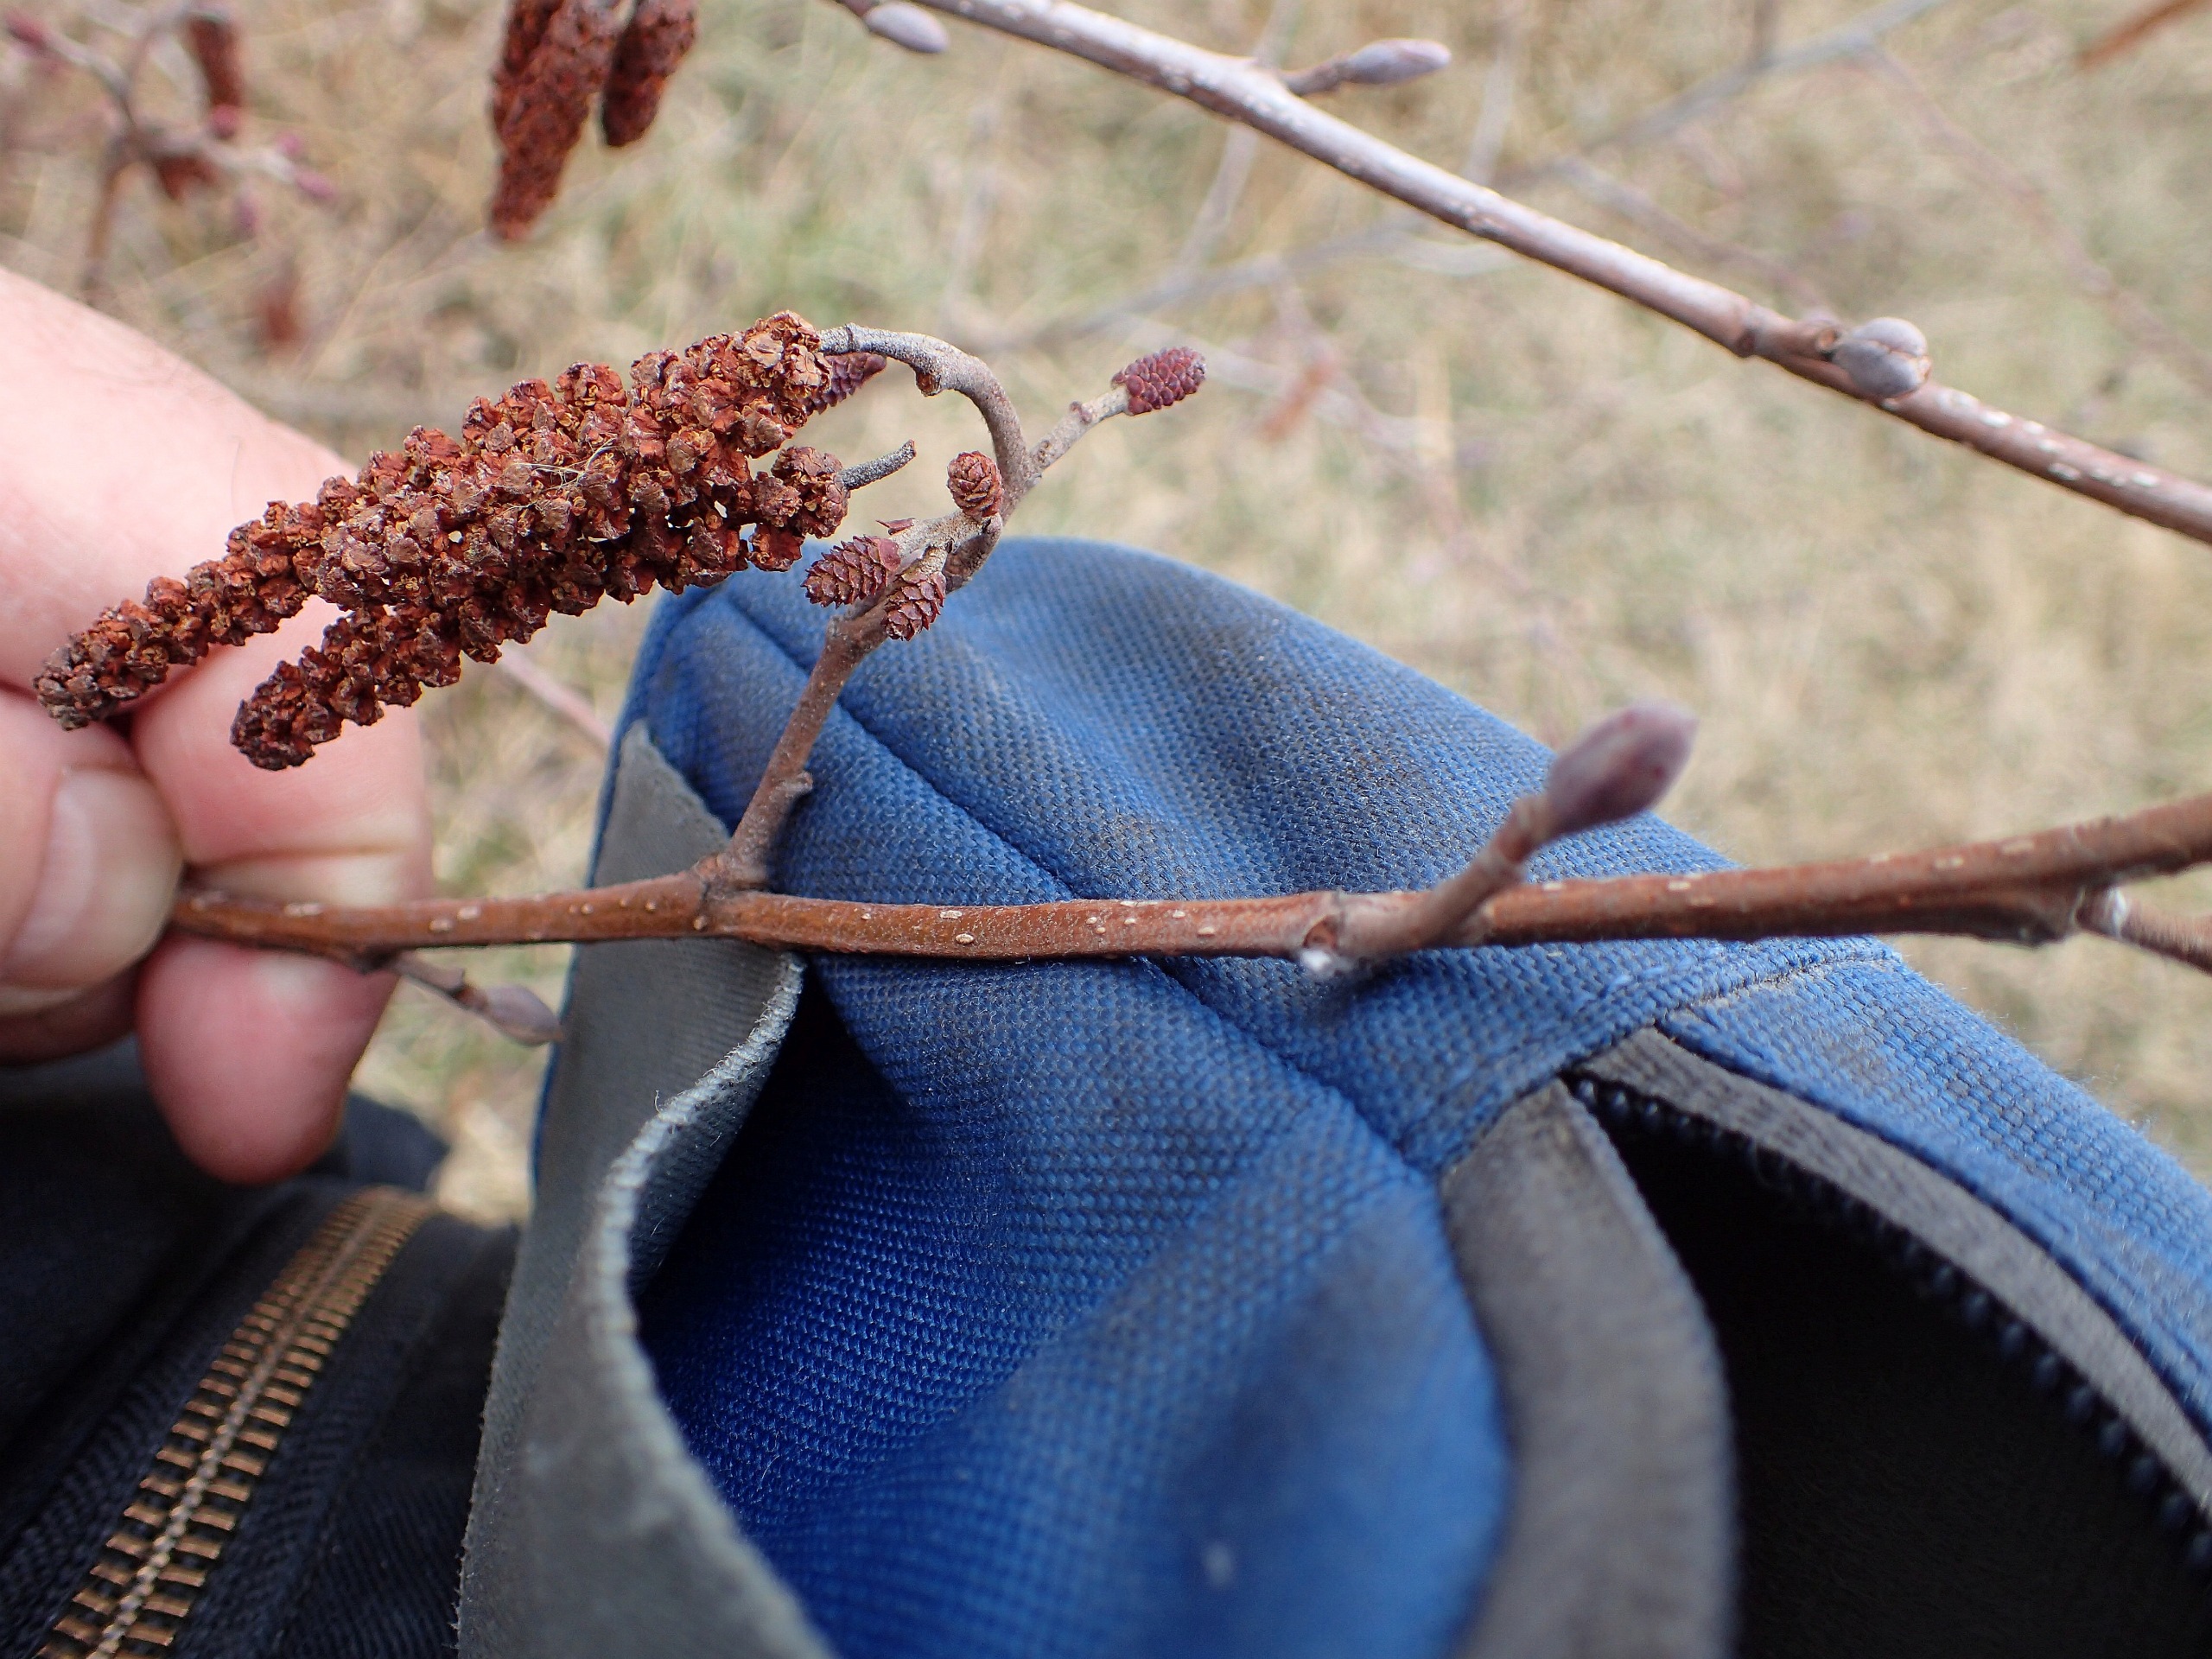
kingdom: Plantae
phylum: Tracheophyta
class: Magnoliopsida
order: Fagales
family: Betulaceae
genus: Alnus
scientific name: Alnus glutinosa
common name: Rød-el
